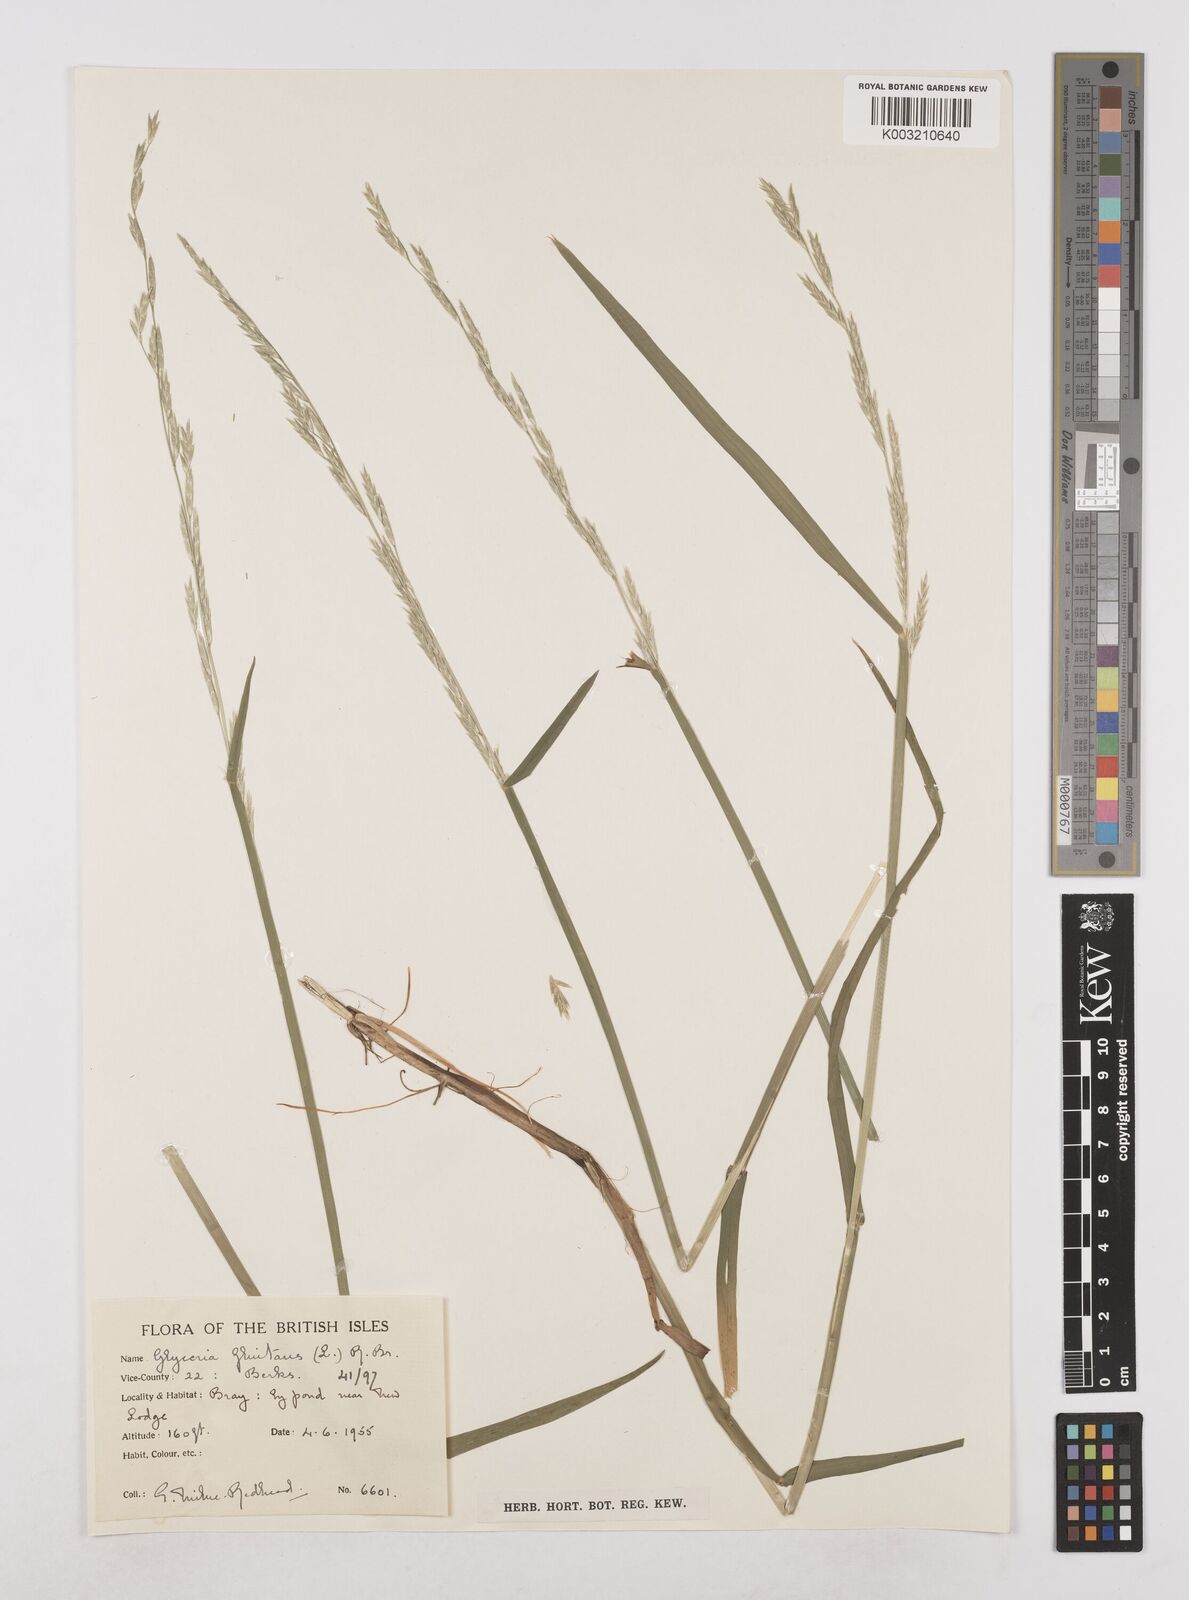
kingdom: Plantae
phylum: Tracheophyta
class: Liliopsida
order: Poales
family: Poaceae
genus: Glyceria
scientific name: Glyceria fluitans
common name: Floating sweet-grass
